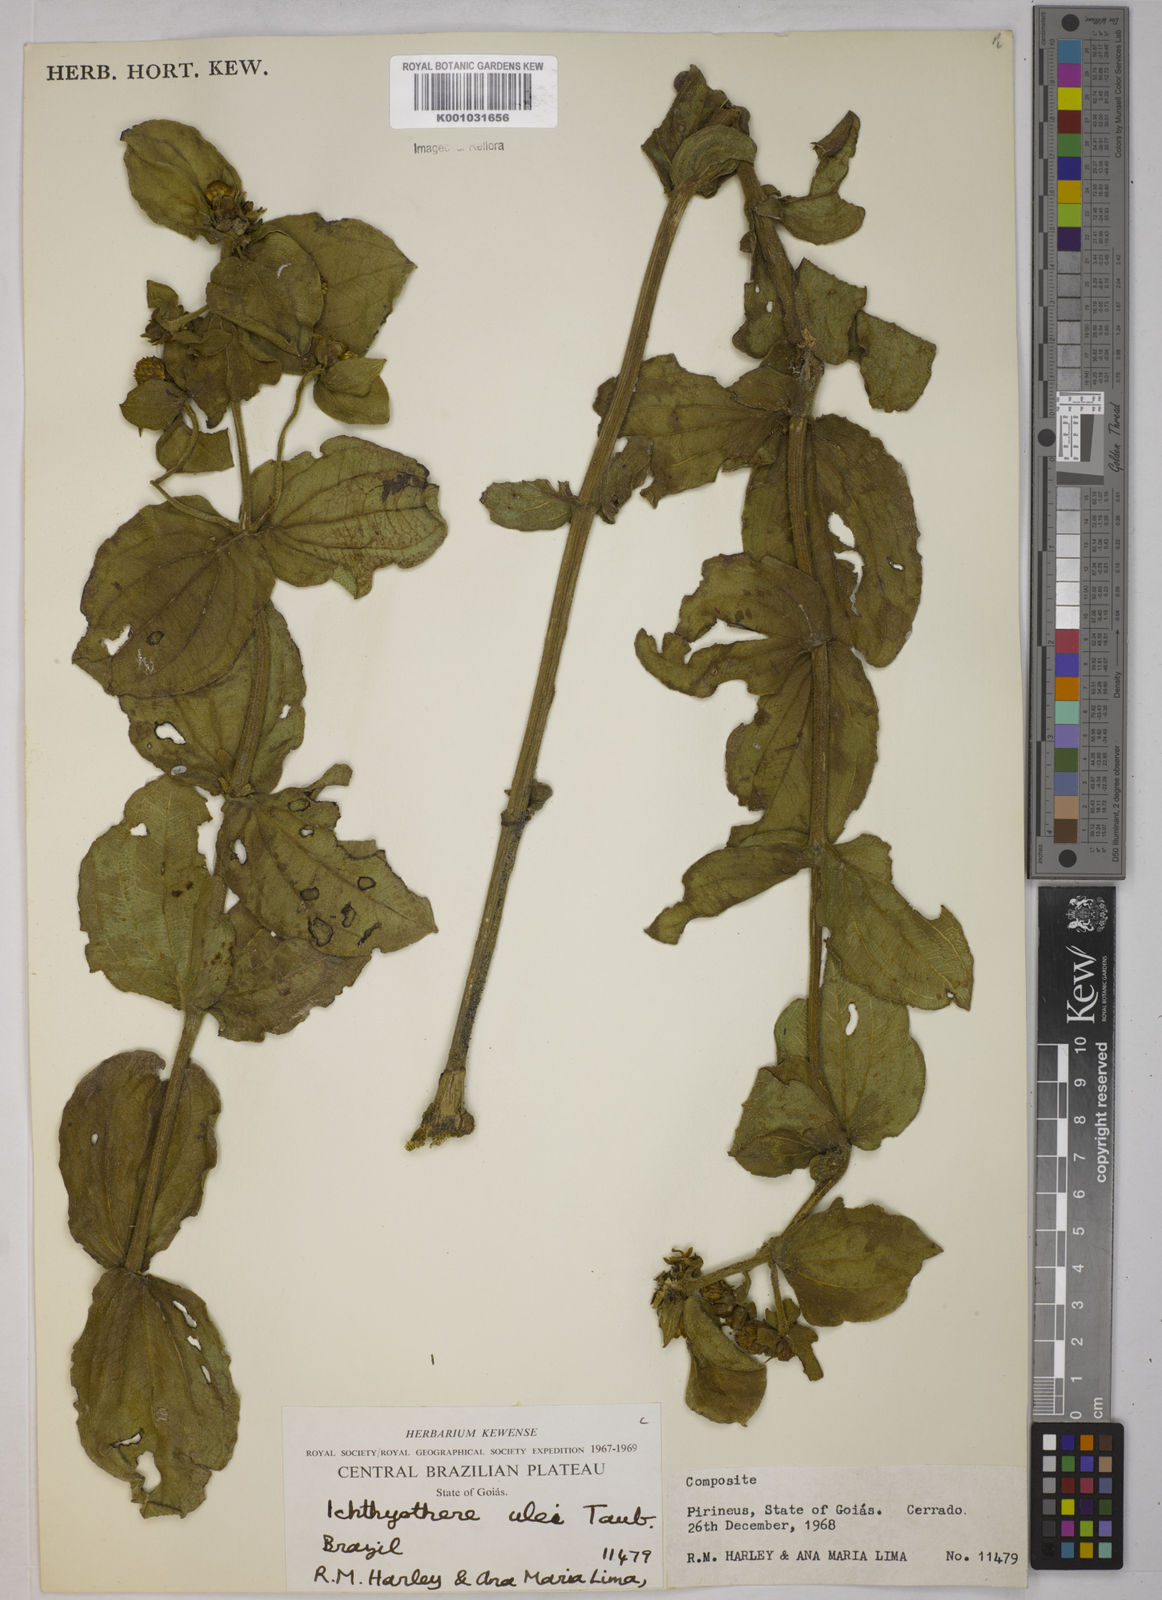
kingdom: Plantae
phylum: Tracheophyta
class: Magnoliopsida
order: Asterales
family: Asteraceae
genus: Ichthyothere
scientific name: Ichthyothere ulei
